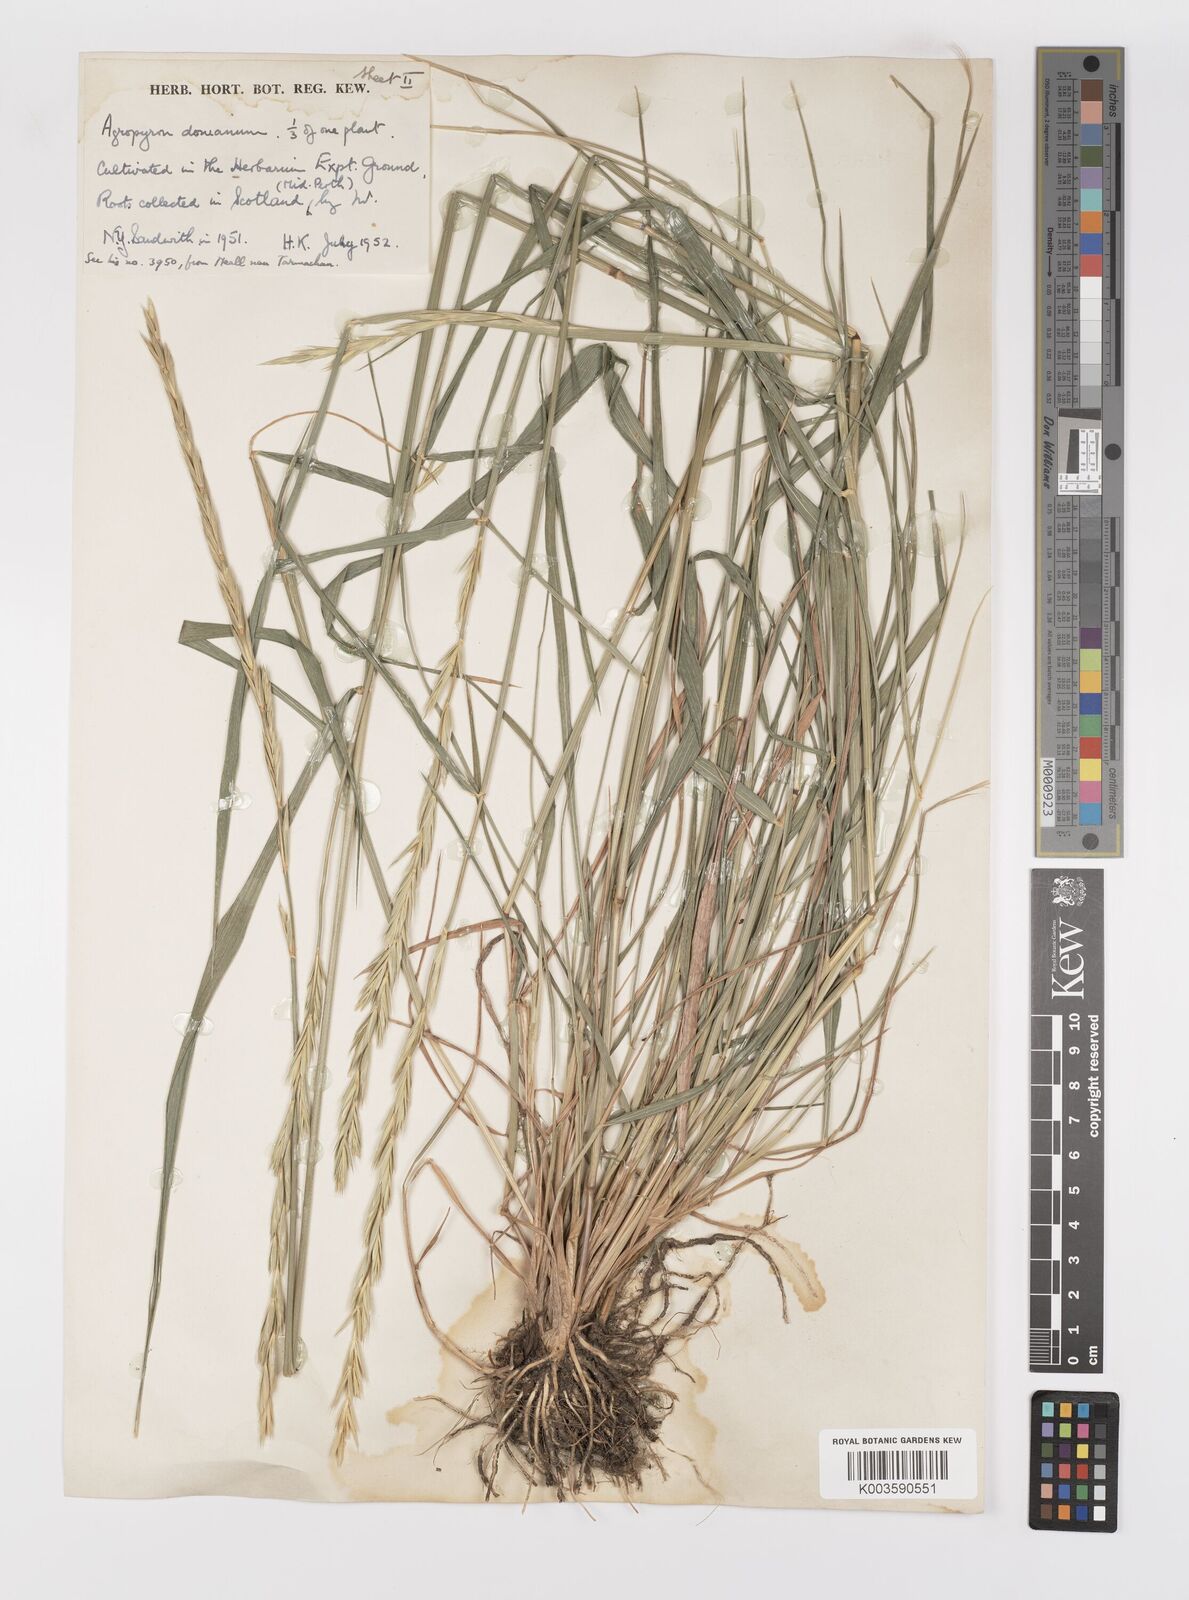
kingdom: Plantae
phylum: Tracheophyta
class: Liliopsida
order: Poales
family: Poaceae
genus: Elymus
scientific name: Elymus caninus
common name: Bearded couch
